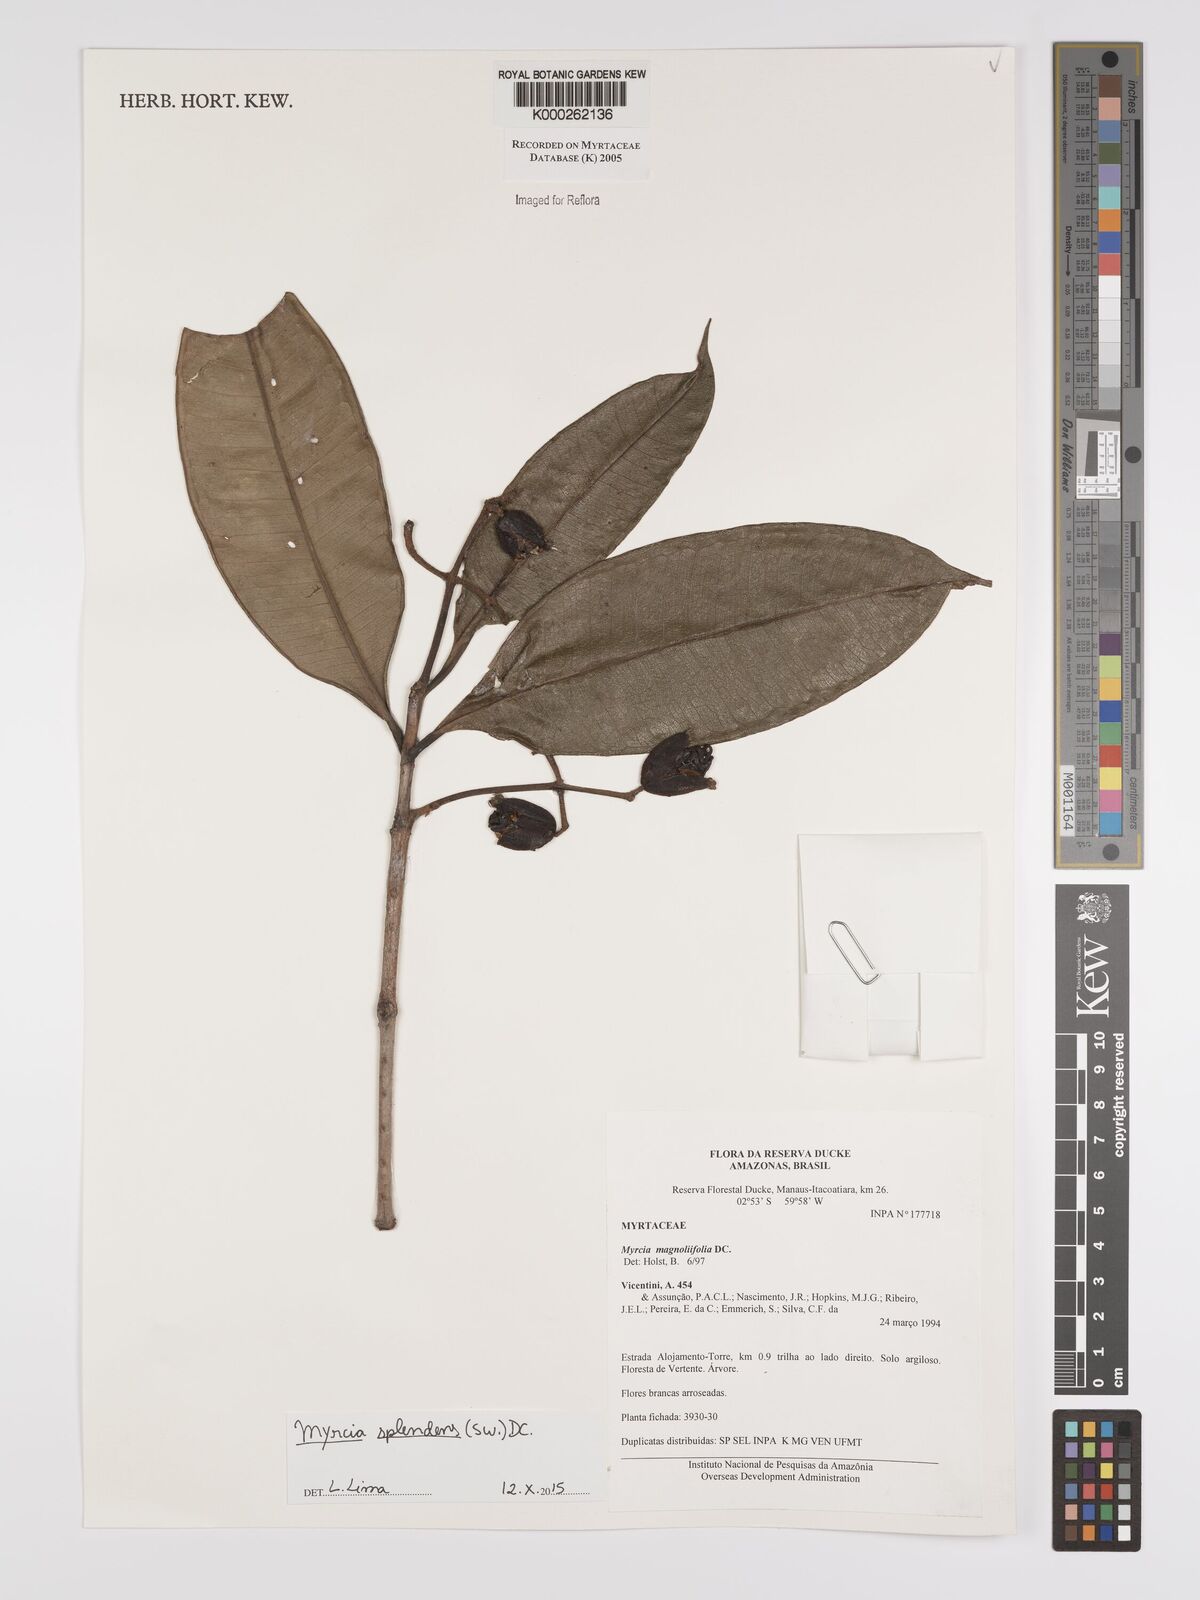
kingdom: Plantae
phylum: Tracheophyta
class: Magnoliopsida
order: Myrtales
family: Myrtaceae
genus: Myrcia
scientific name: Myrcia splendens
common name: Surinam cherry
